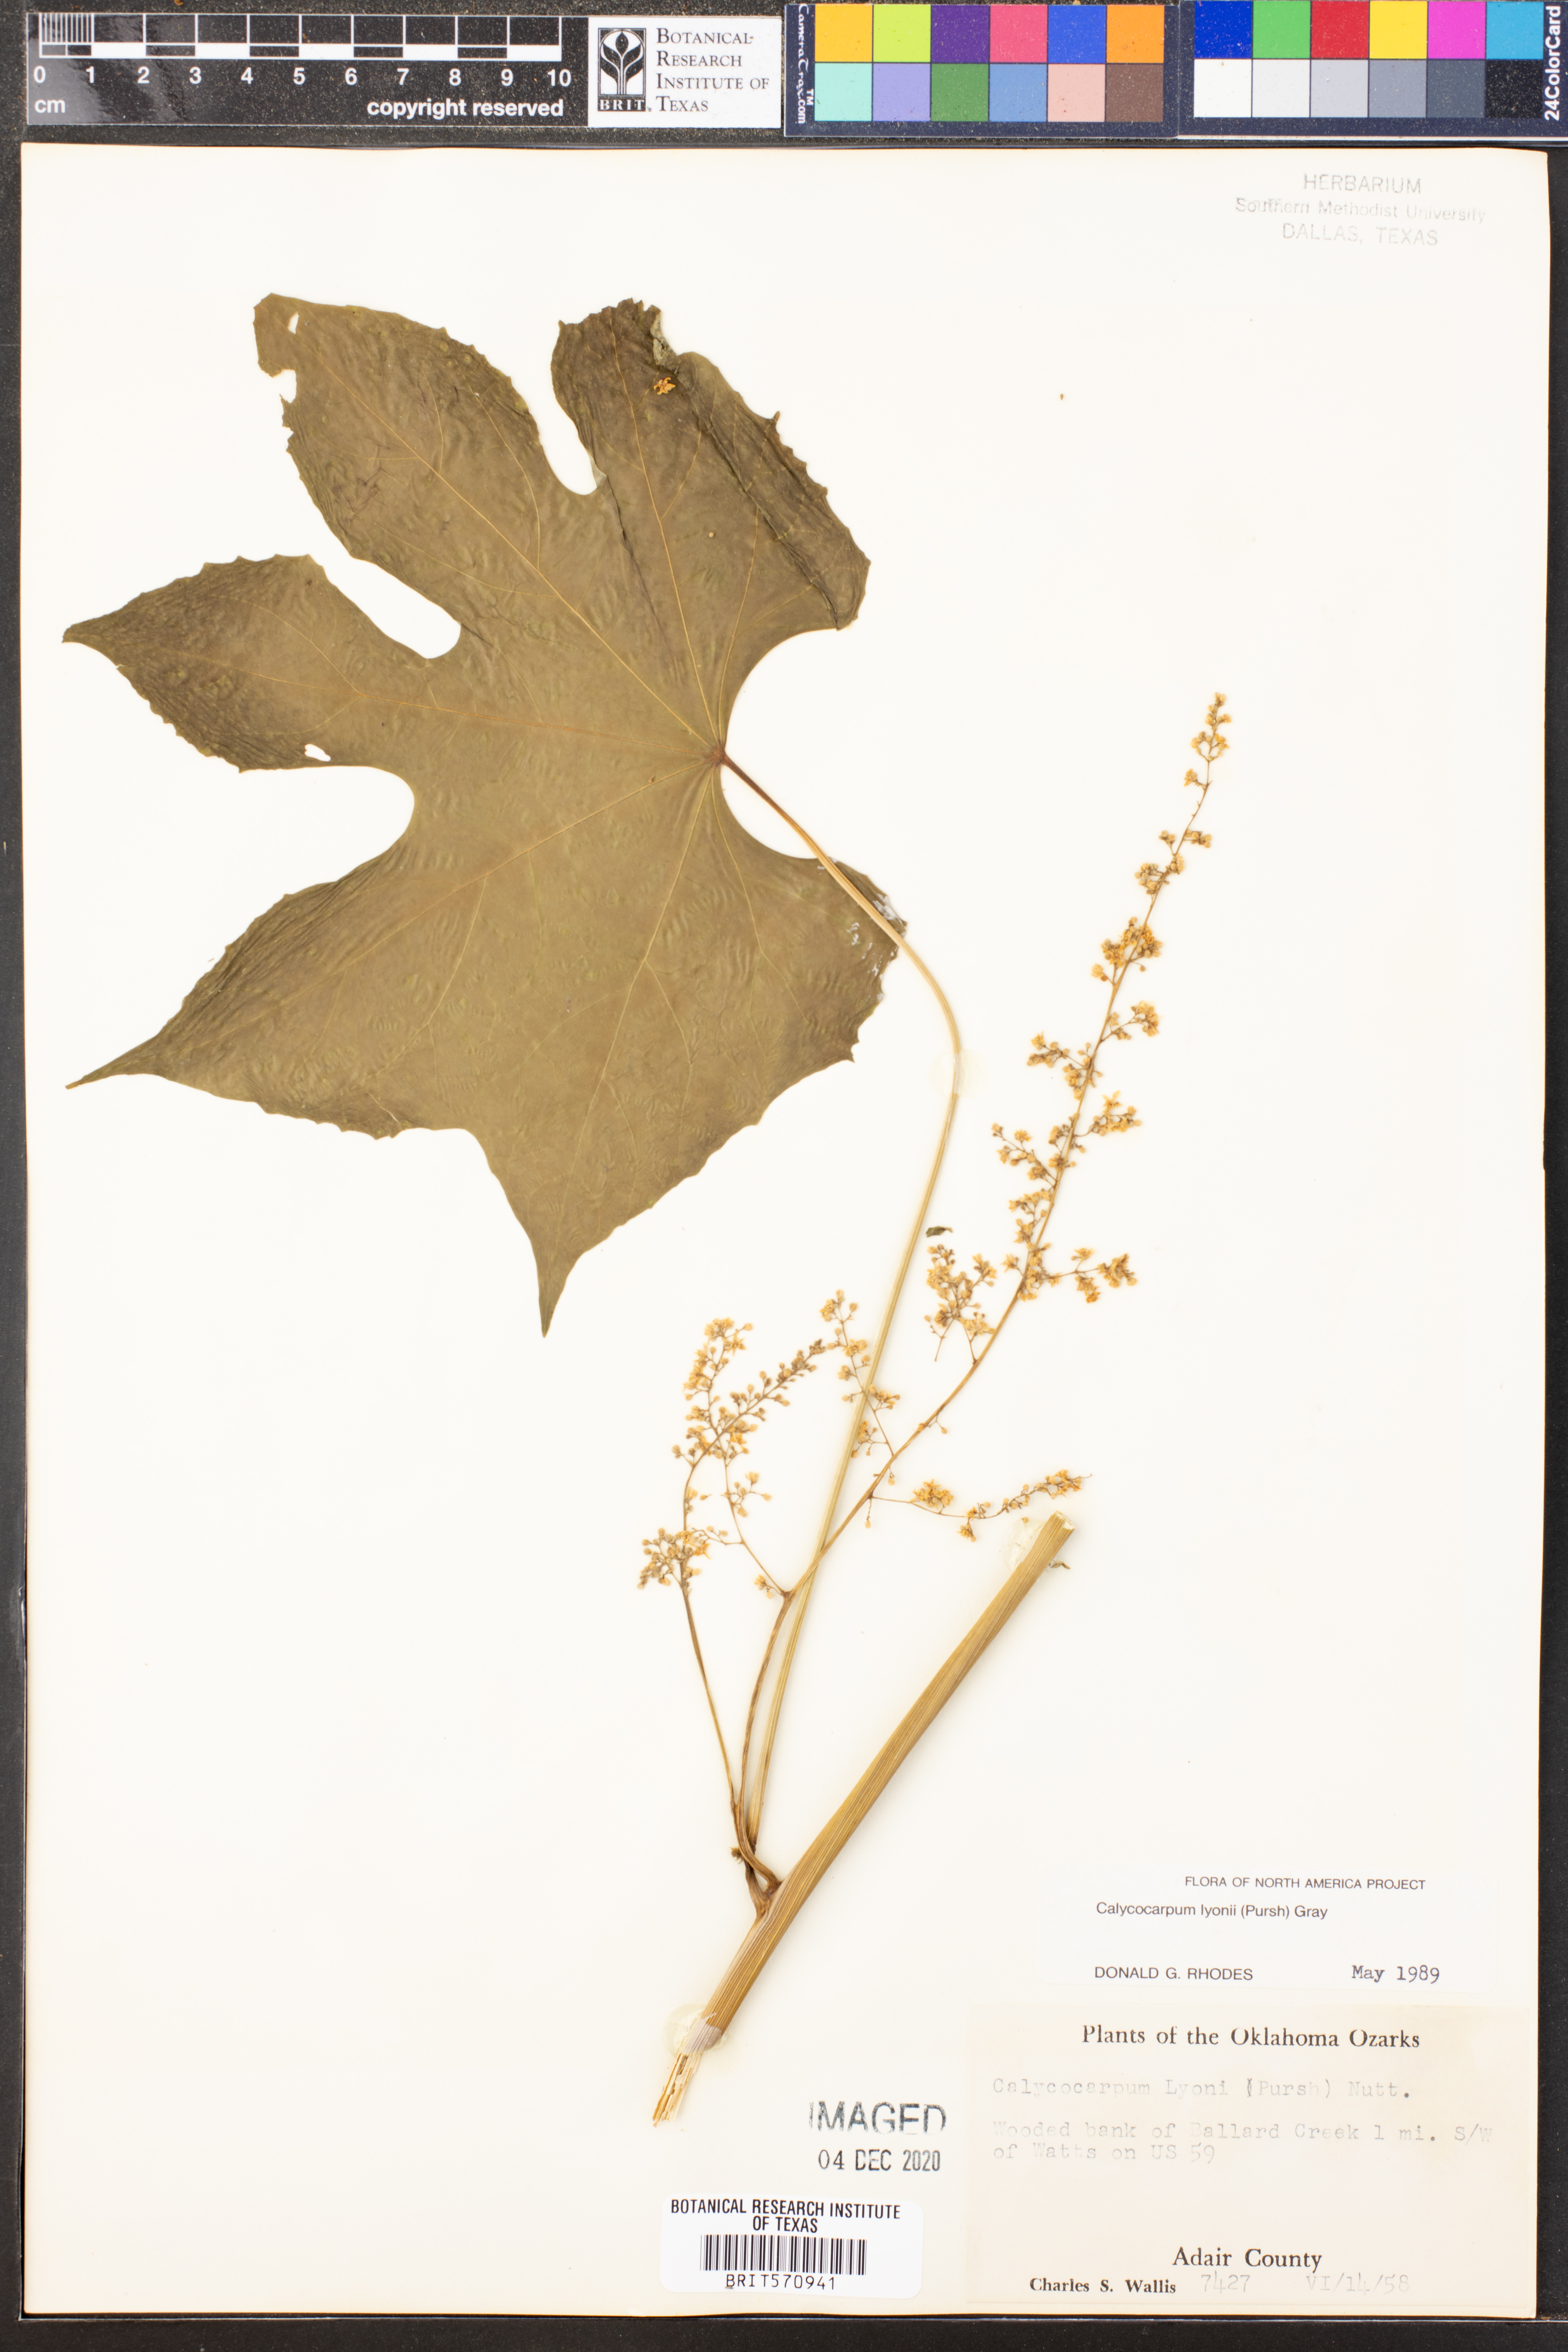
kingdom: Plantae
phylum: Tracheophyta
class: Magnoliopsida
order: Ranunculales
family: Menispermaceae
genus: Calycocarpum
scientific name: Calycocarpum lyonii
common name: Cupseed
